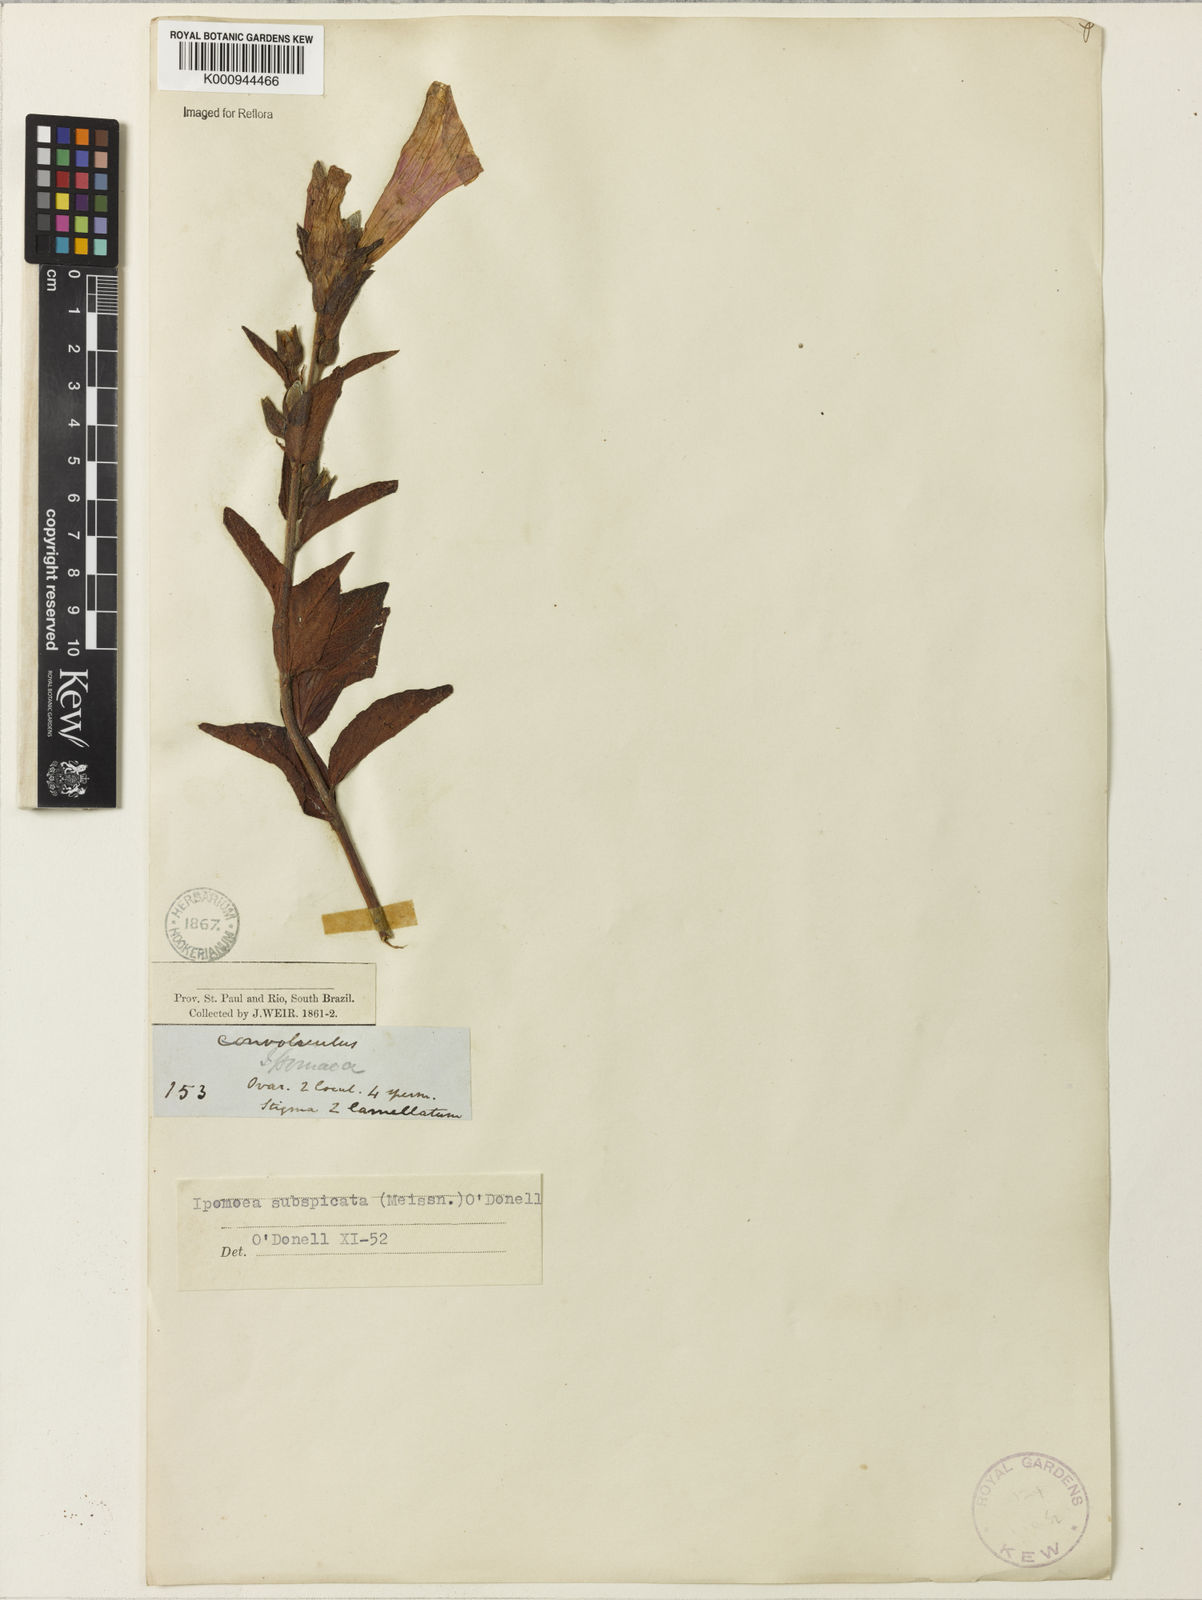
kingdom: Plantae
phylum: Tracheophyta
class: Magnoliopsida
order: Solanales
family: Convolvulaceae
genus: Ipomoea
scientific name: Ipomoea subspicata
